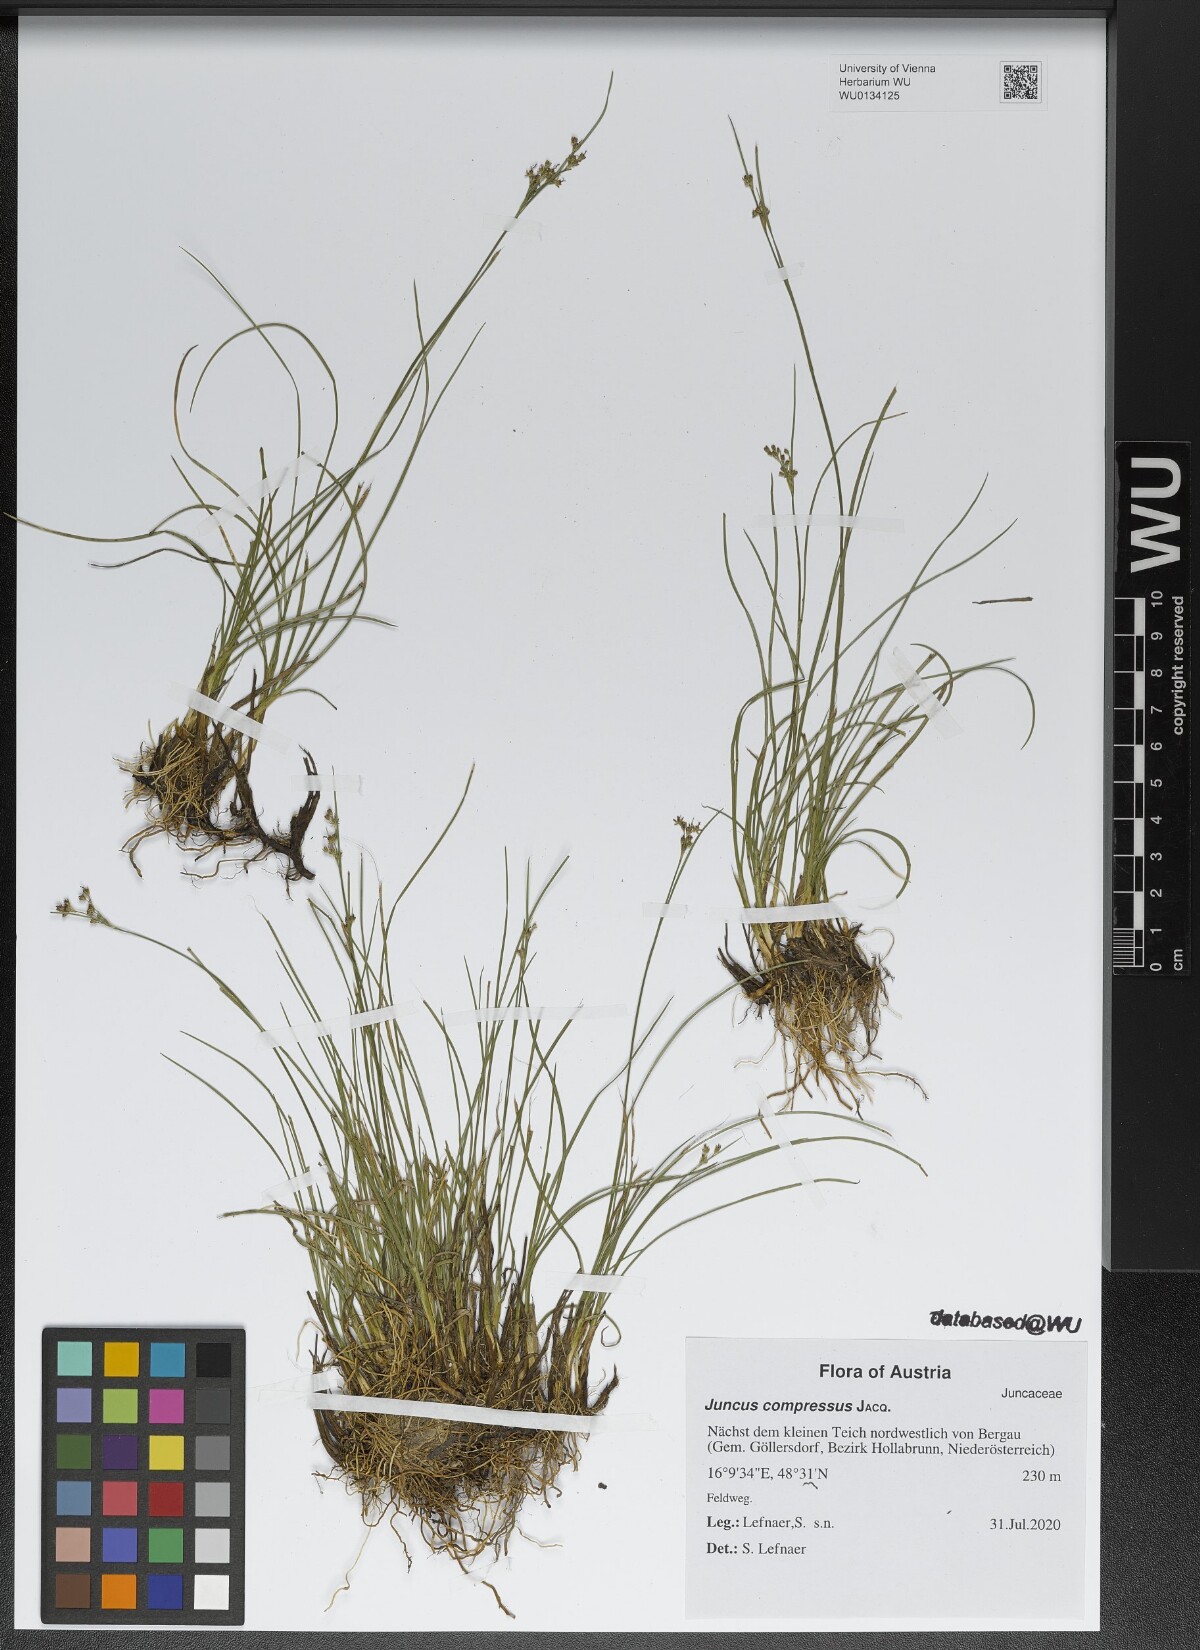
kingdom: Plantae
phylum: Tracheophyta
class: Liliopsida
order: Poales
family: Juncaceae
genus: Juncus
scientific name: Juncus compressus
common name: Round-fruited rush
